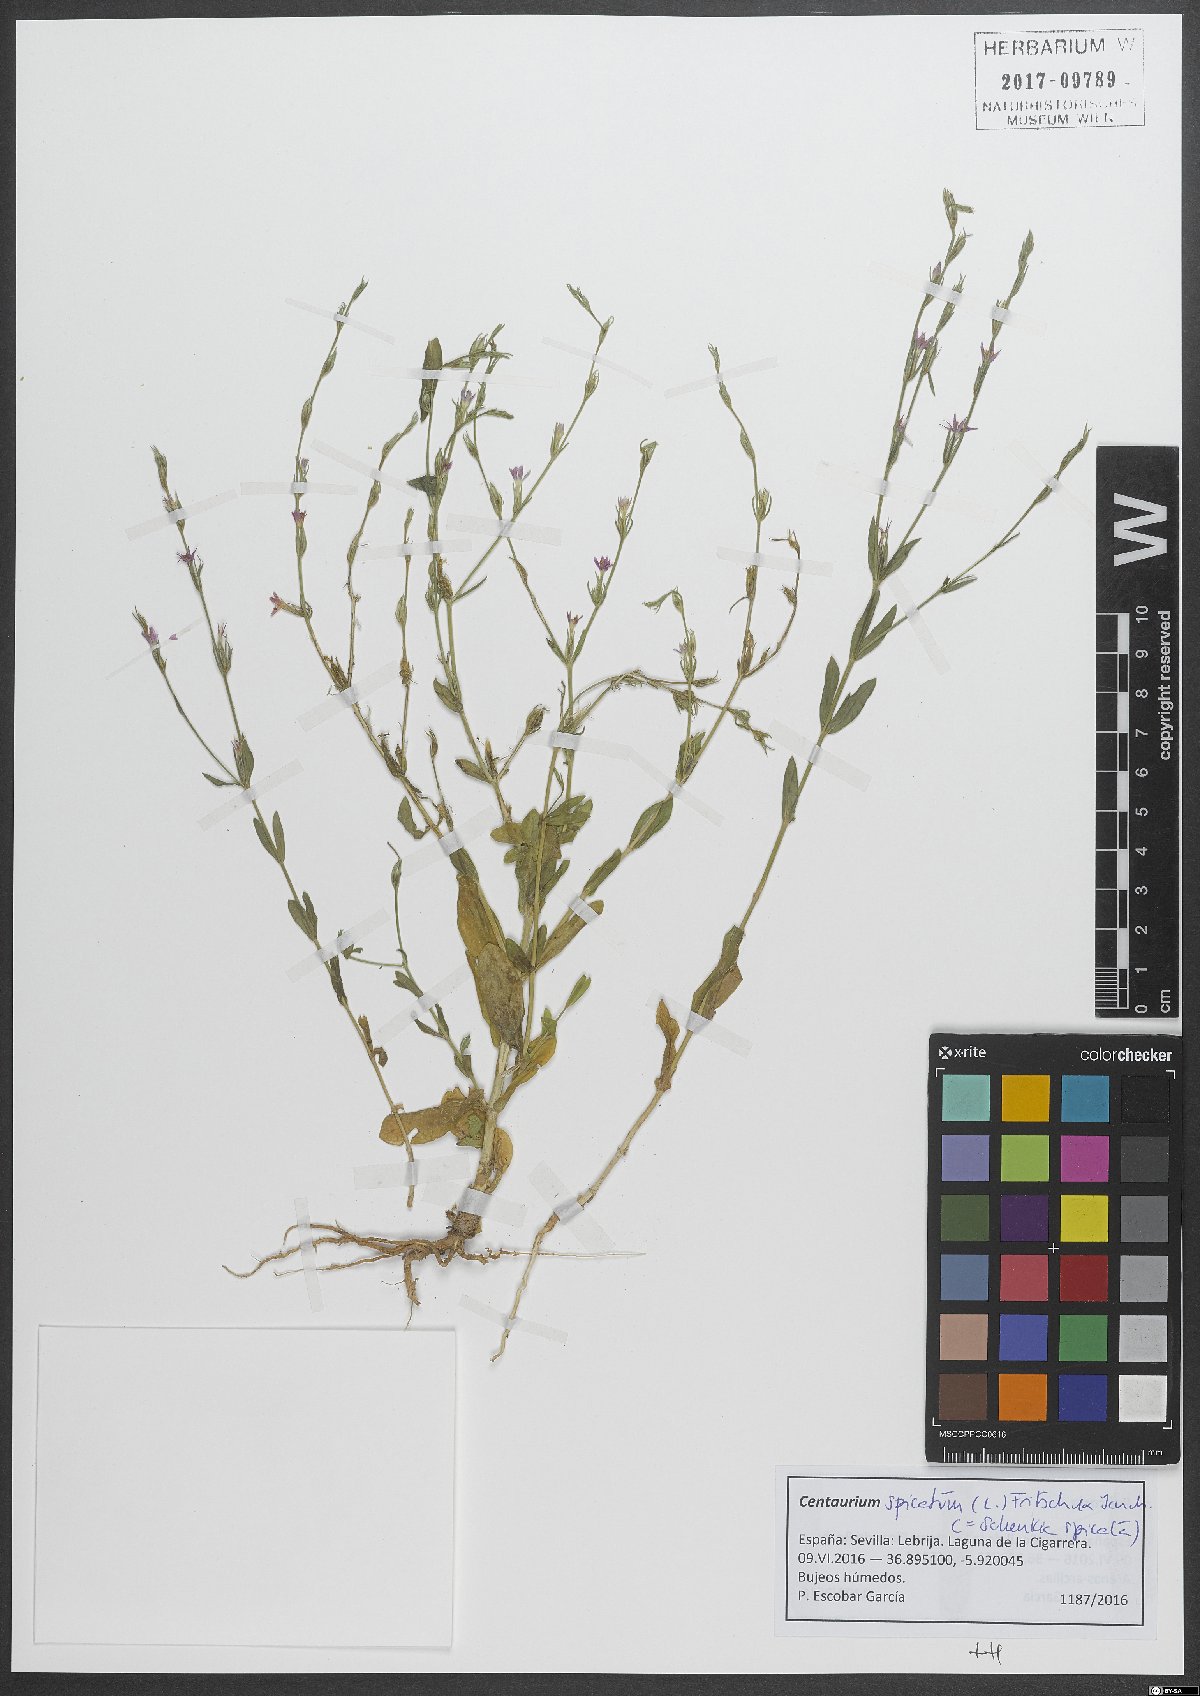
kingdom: Plantae
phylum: Tracheophyta
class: Magnoliopsida
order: Gentianales
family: Gentianaceae
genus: Schenkia
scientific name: Schenkia spicata
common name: Spiked centaury
